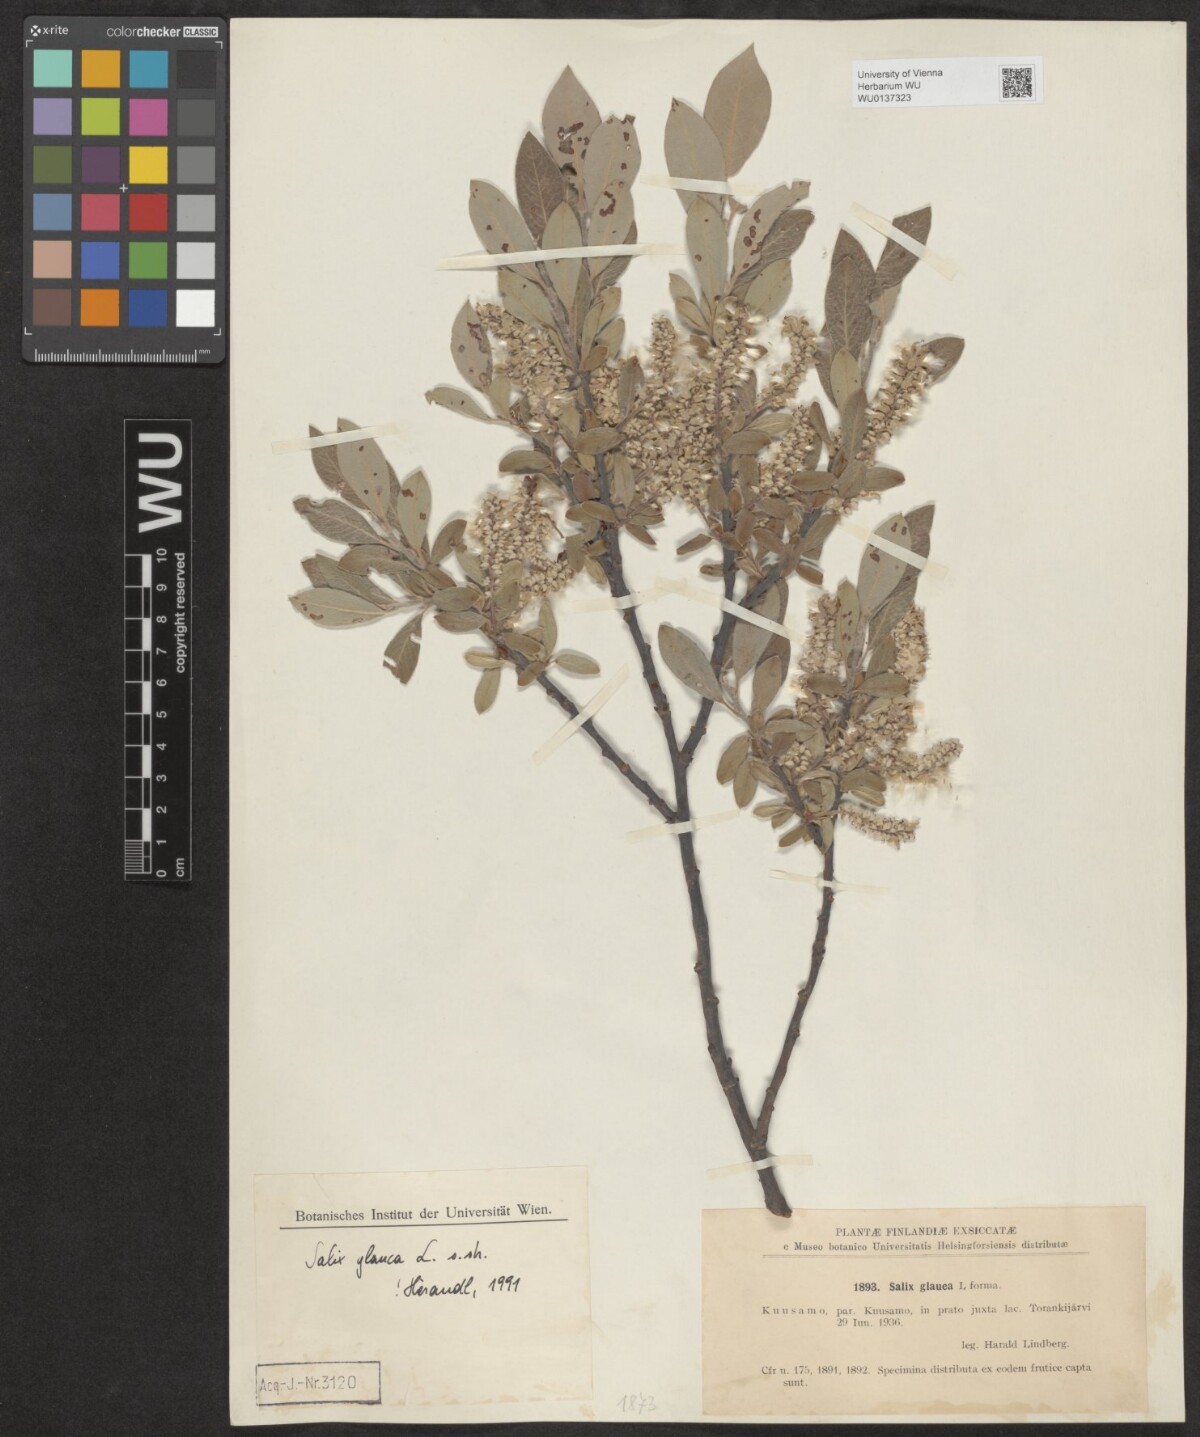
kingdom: Plantae
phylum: Tracheophyta
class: Magnoliopsida
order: Malpighiales
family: Salicaceae
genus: Salix
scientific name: Salix glauca
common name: Glaucous willow
